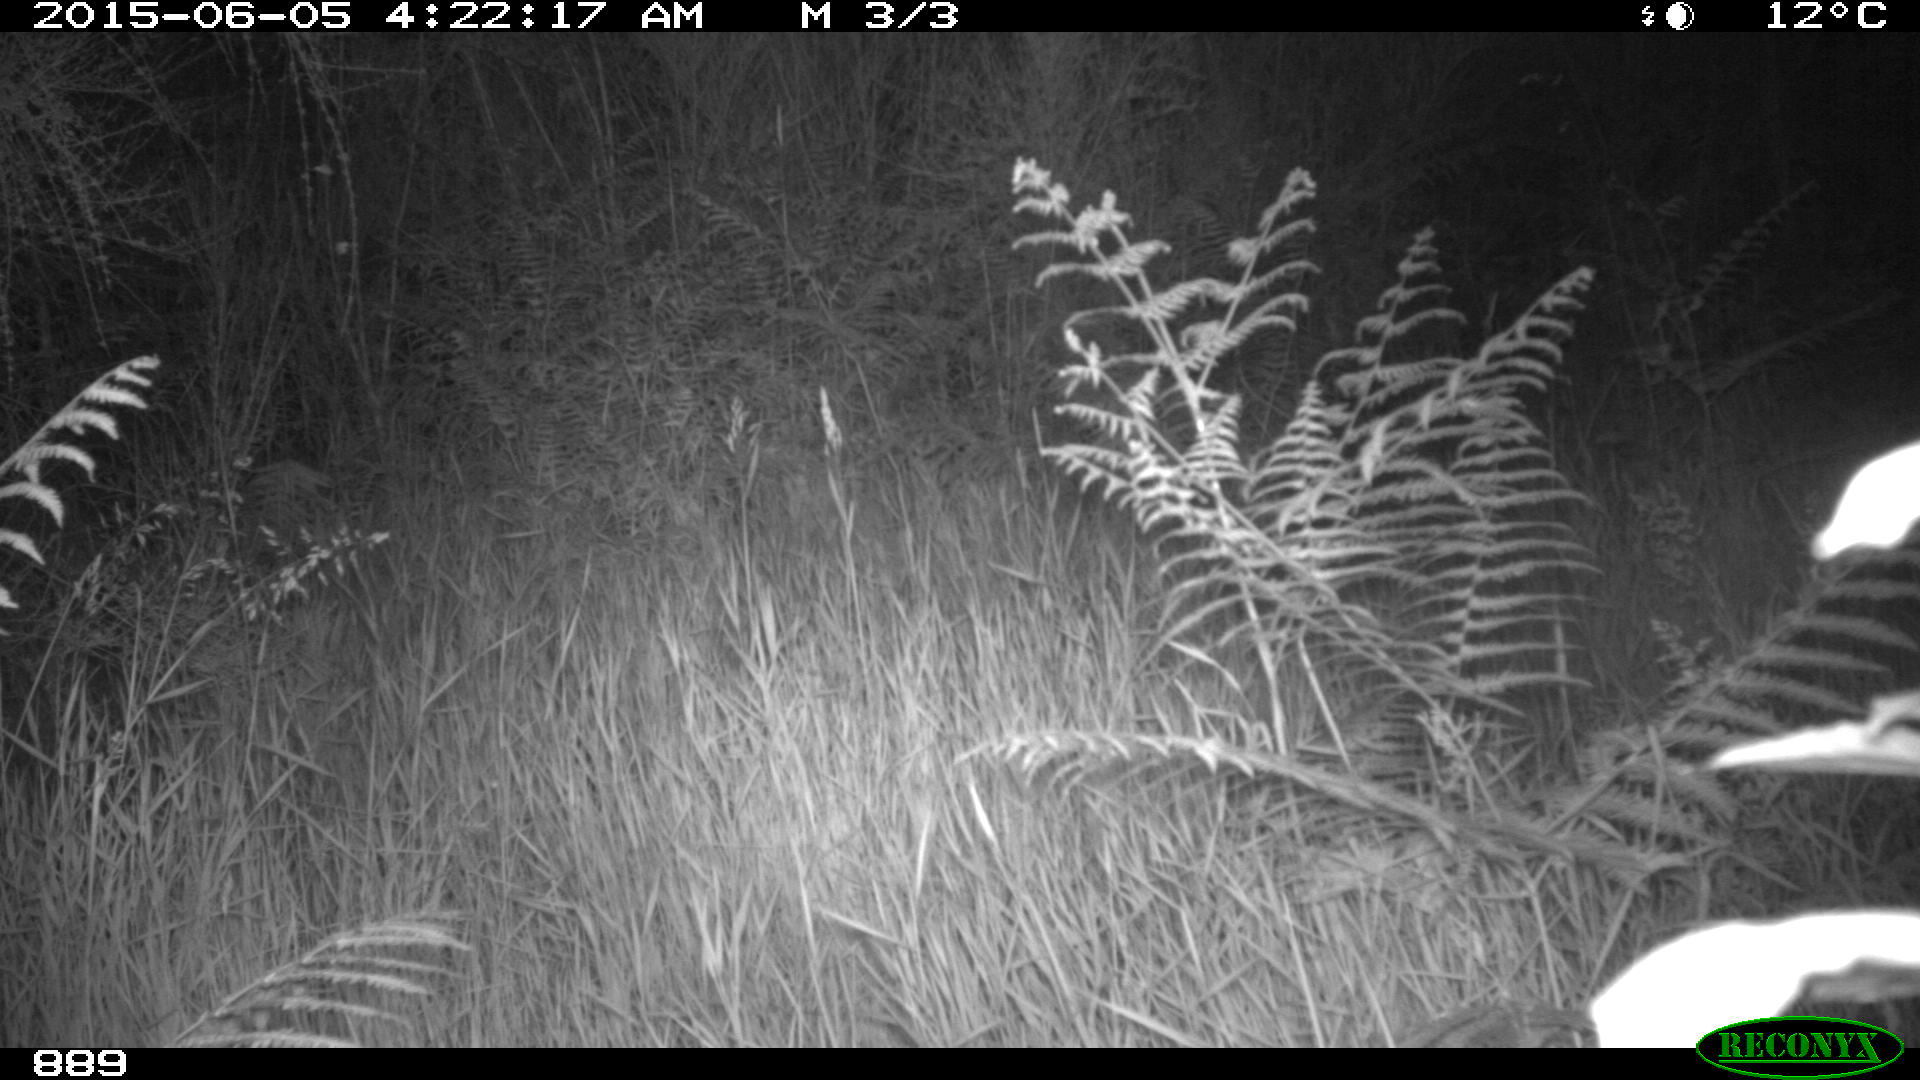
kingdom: Animalia
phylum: Chordata
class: Mammalia
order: Carnivora
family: Canidae
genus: Vulpes
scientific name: Vulpes vulpes
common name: Red fox
